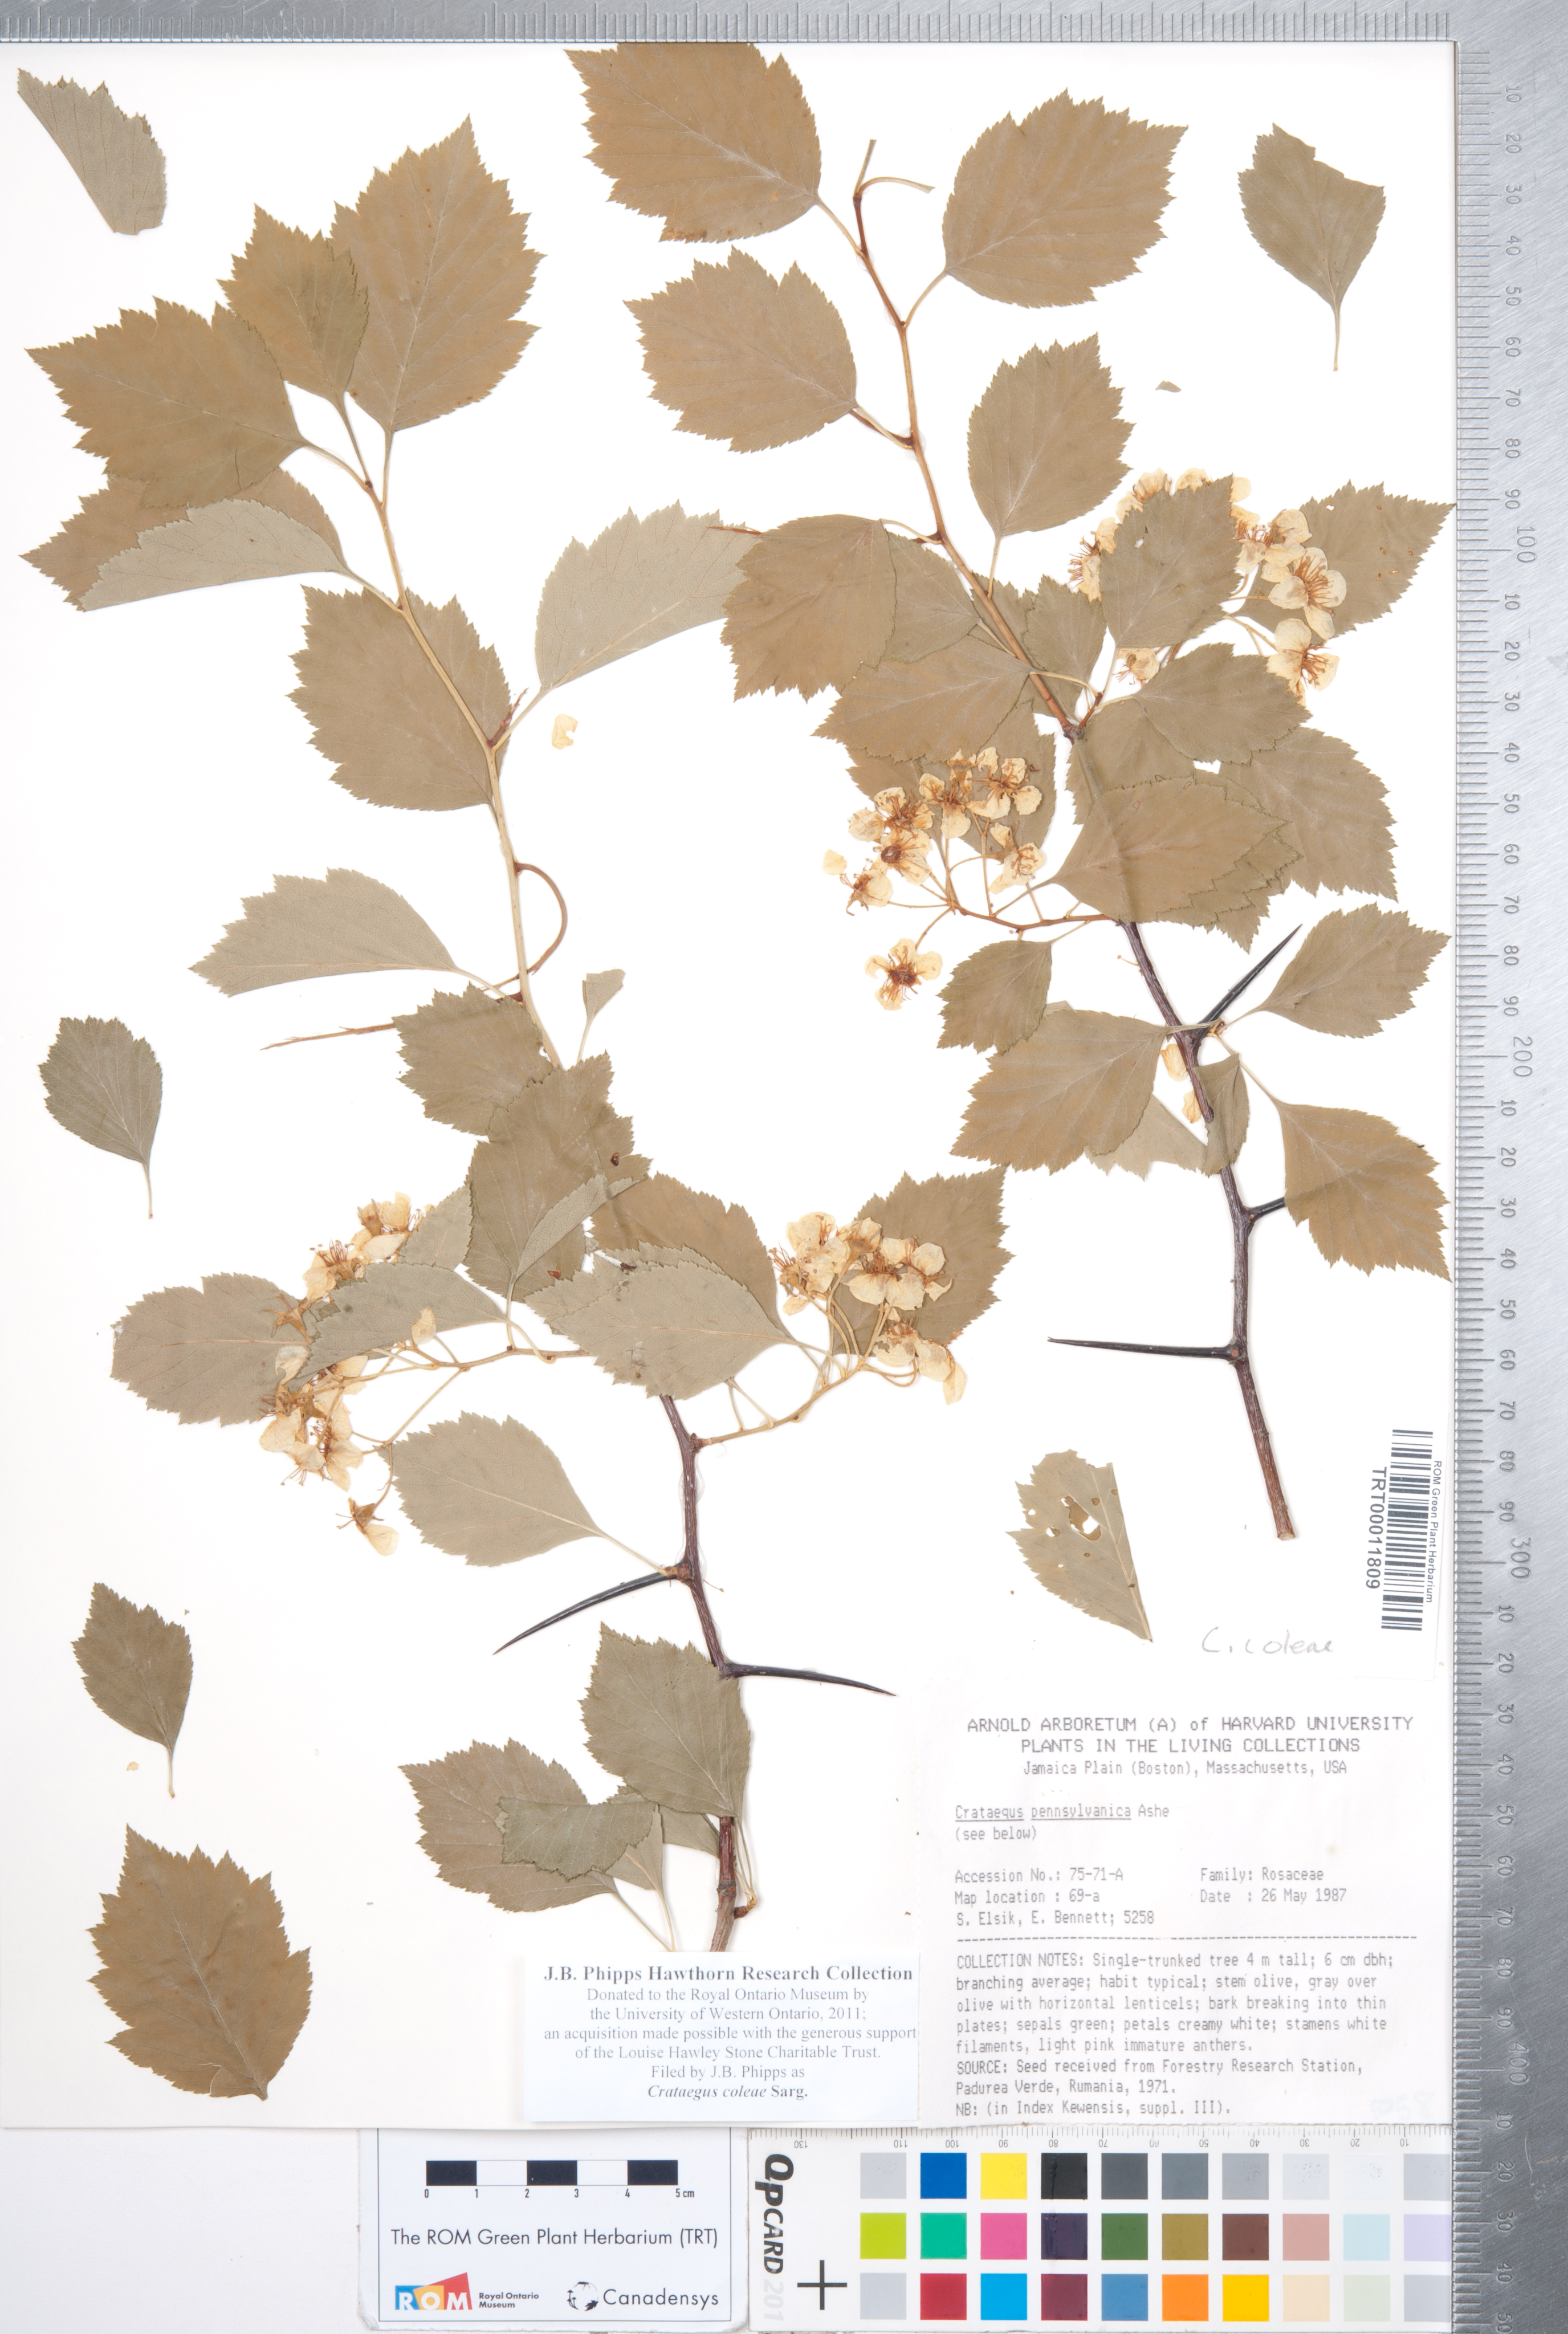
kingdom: Plantae
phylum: Tracheophyta
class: Magnoliopsida
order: Rosales
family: Rosaceae
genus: Crataegus
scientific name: Crataegus coleae
